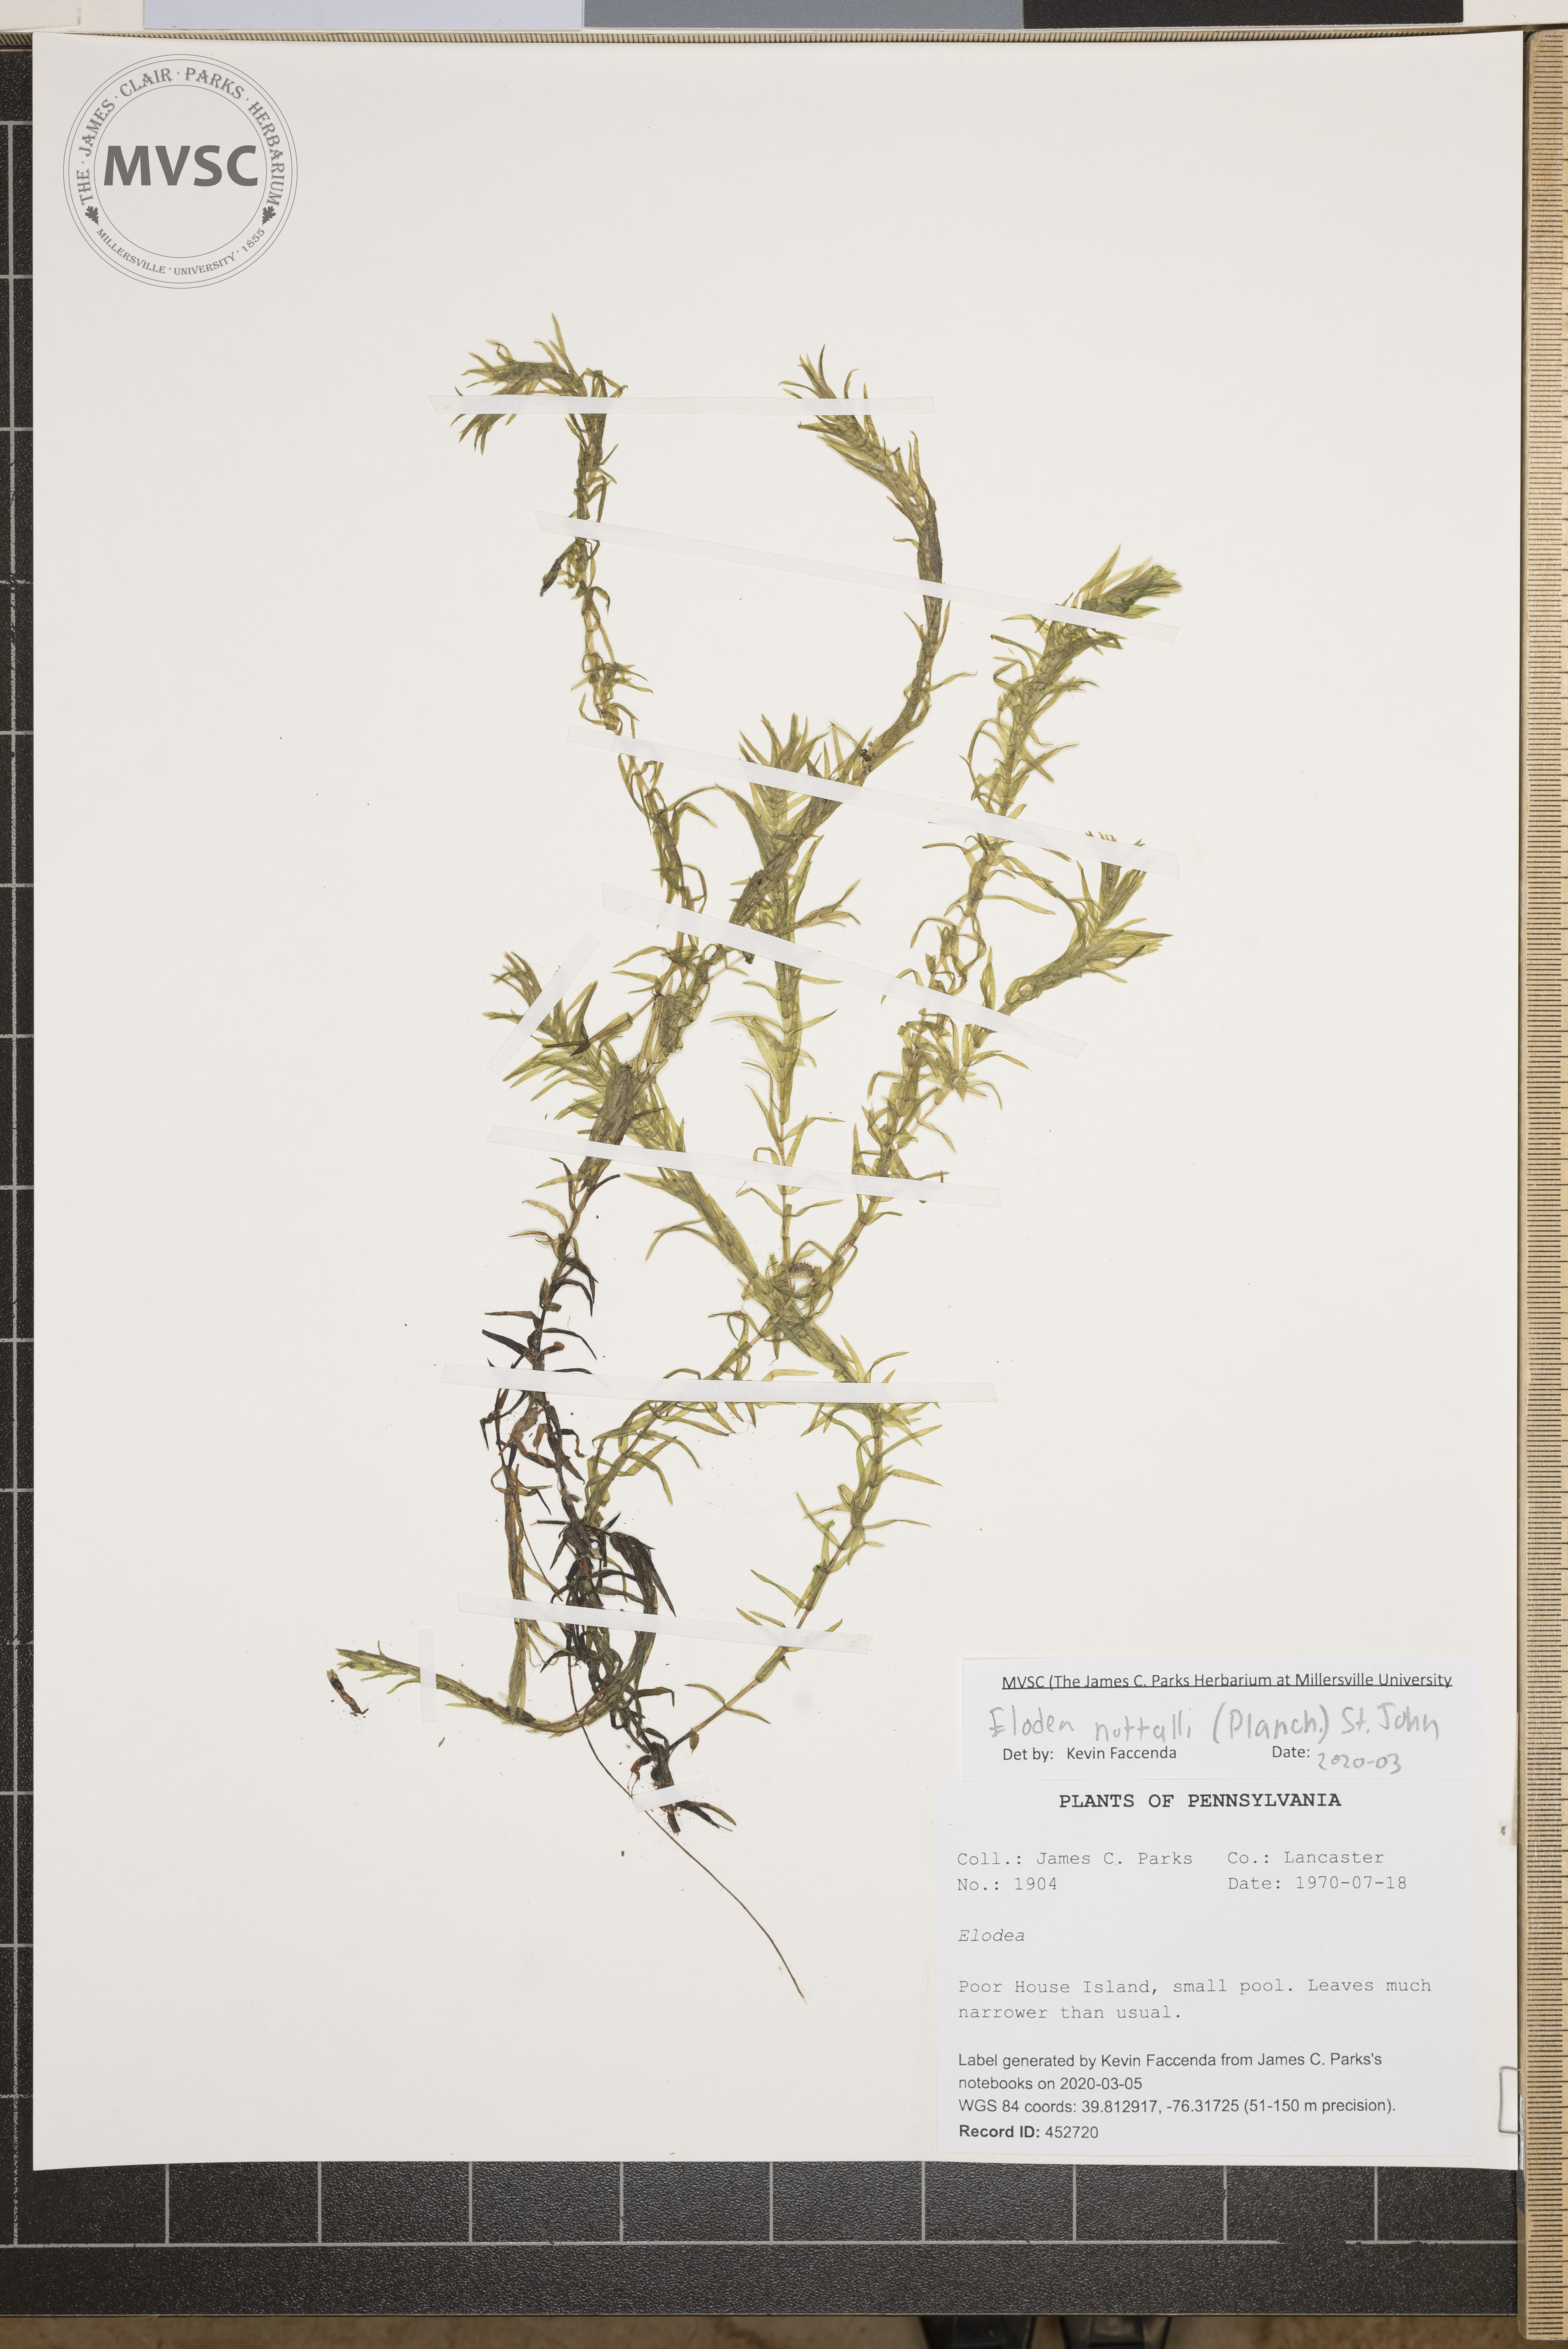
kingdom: Plantae
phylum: Tracheophyta
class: Liliopsida
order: Alismatales
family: Hydrocharitaceae
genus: Elodea
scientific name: Elodea nuttallii
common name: Nuttall's waterweed
